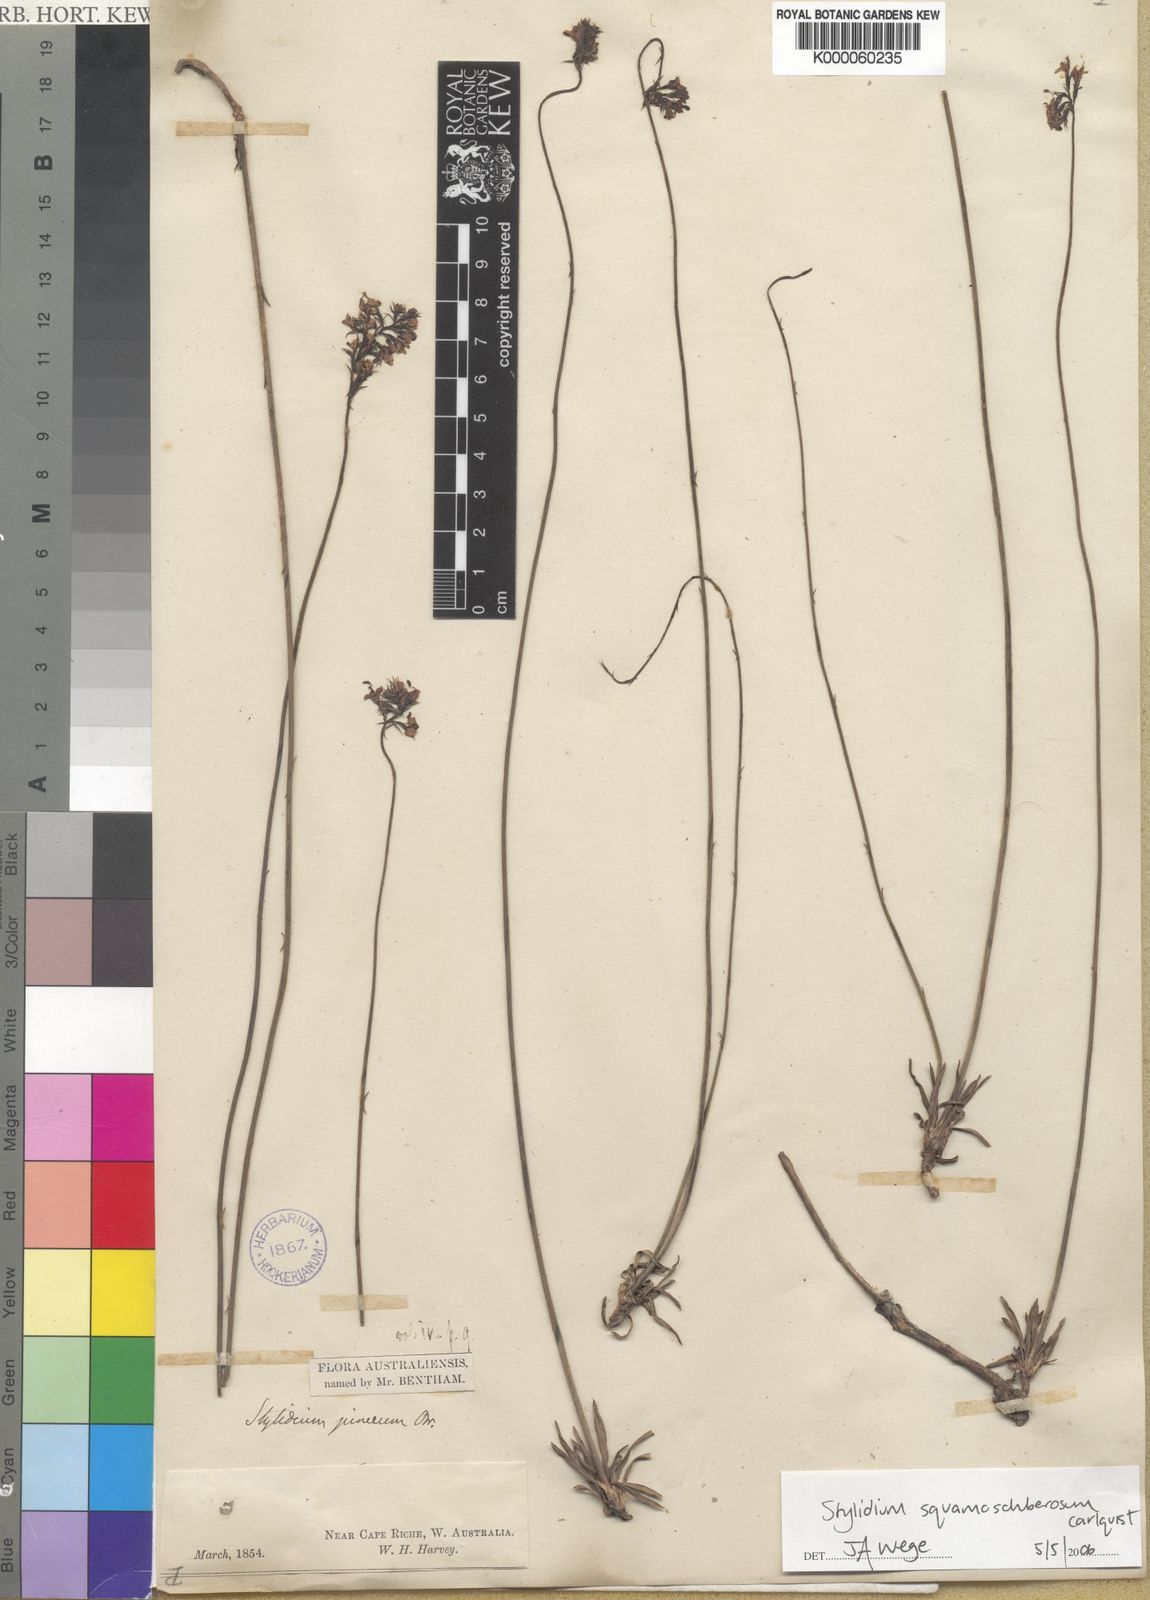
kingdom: Plantae
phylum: Tracheophyta
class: Magnoliopsida
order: Asterales
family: Stylidiaceae
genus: Stylidium
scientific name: Stylidium squamosotuberosum
